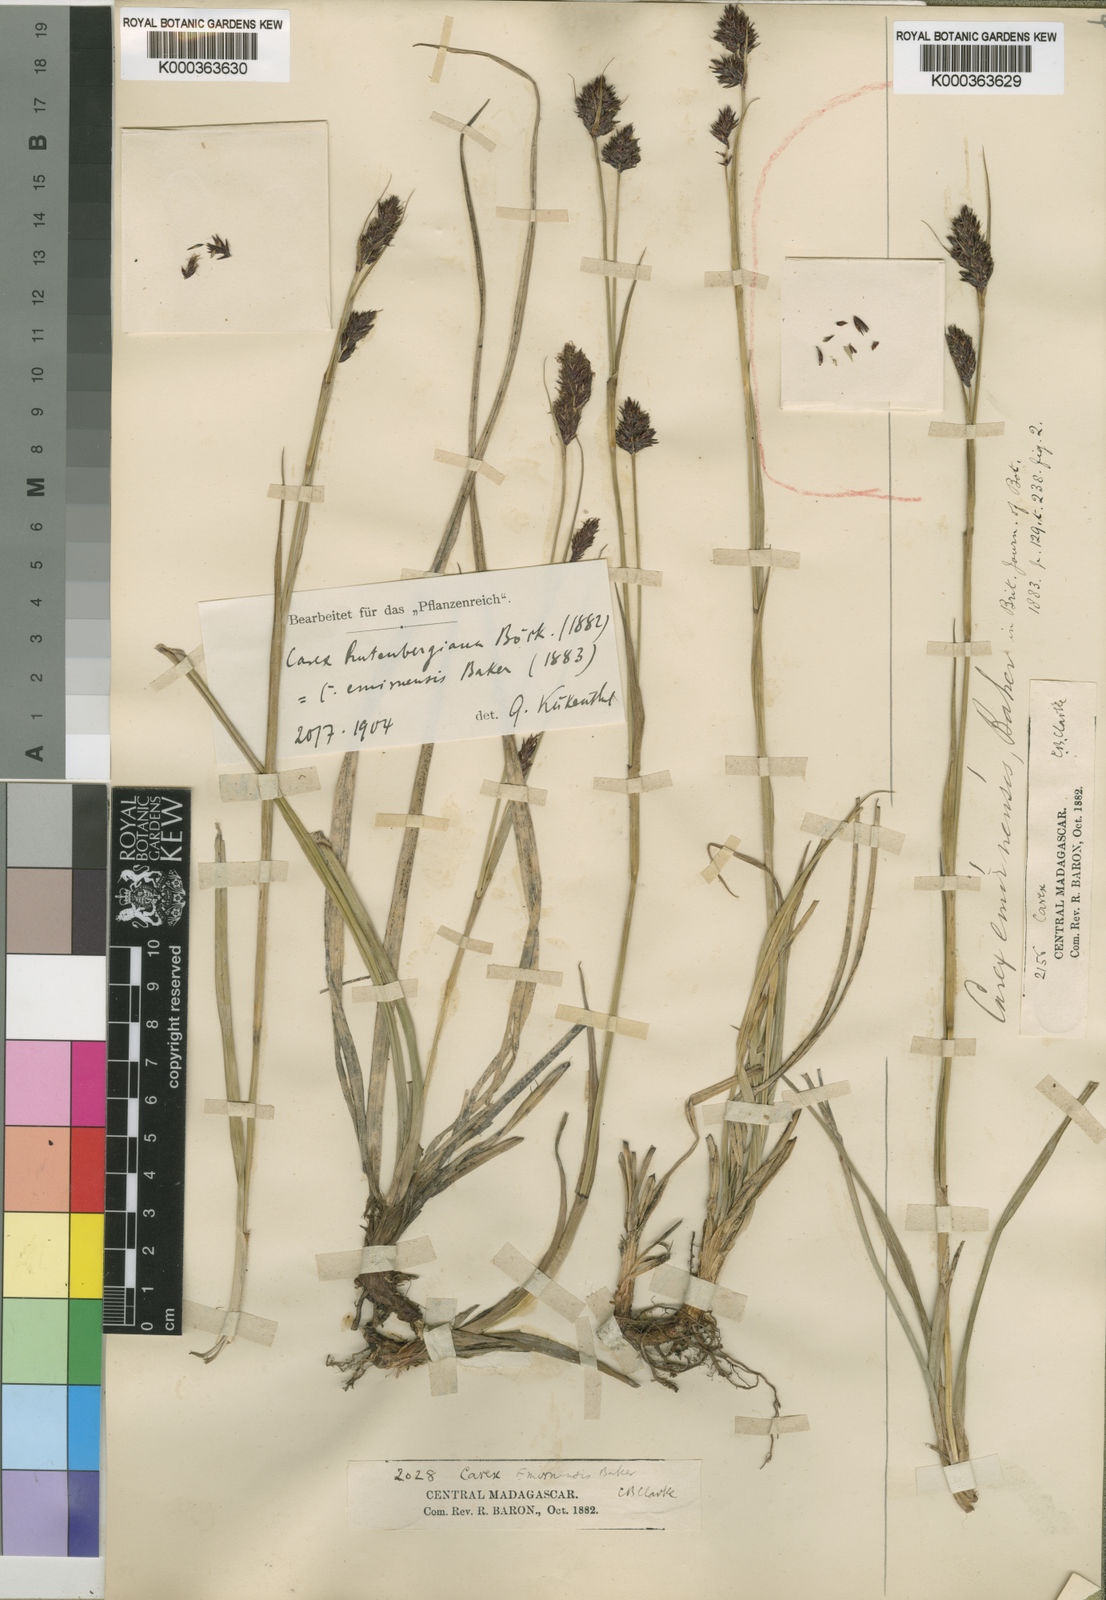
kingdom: Plantae
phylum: Tracheophyta
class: Liliopsida
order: Poales
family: Cyperaceae
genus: Carex
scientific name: Carex rutenbergiana
